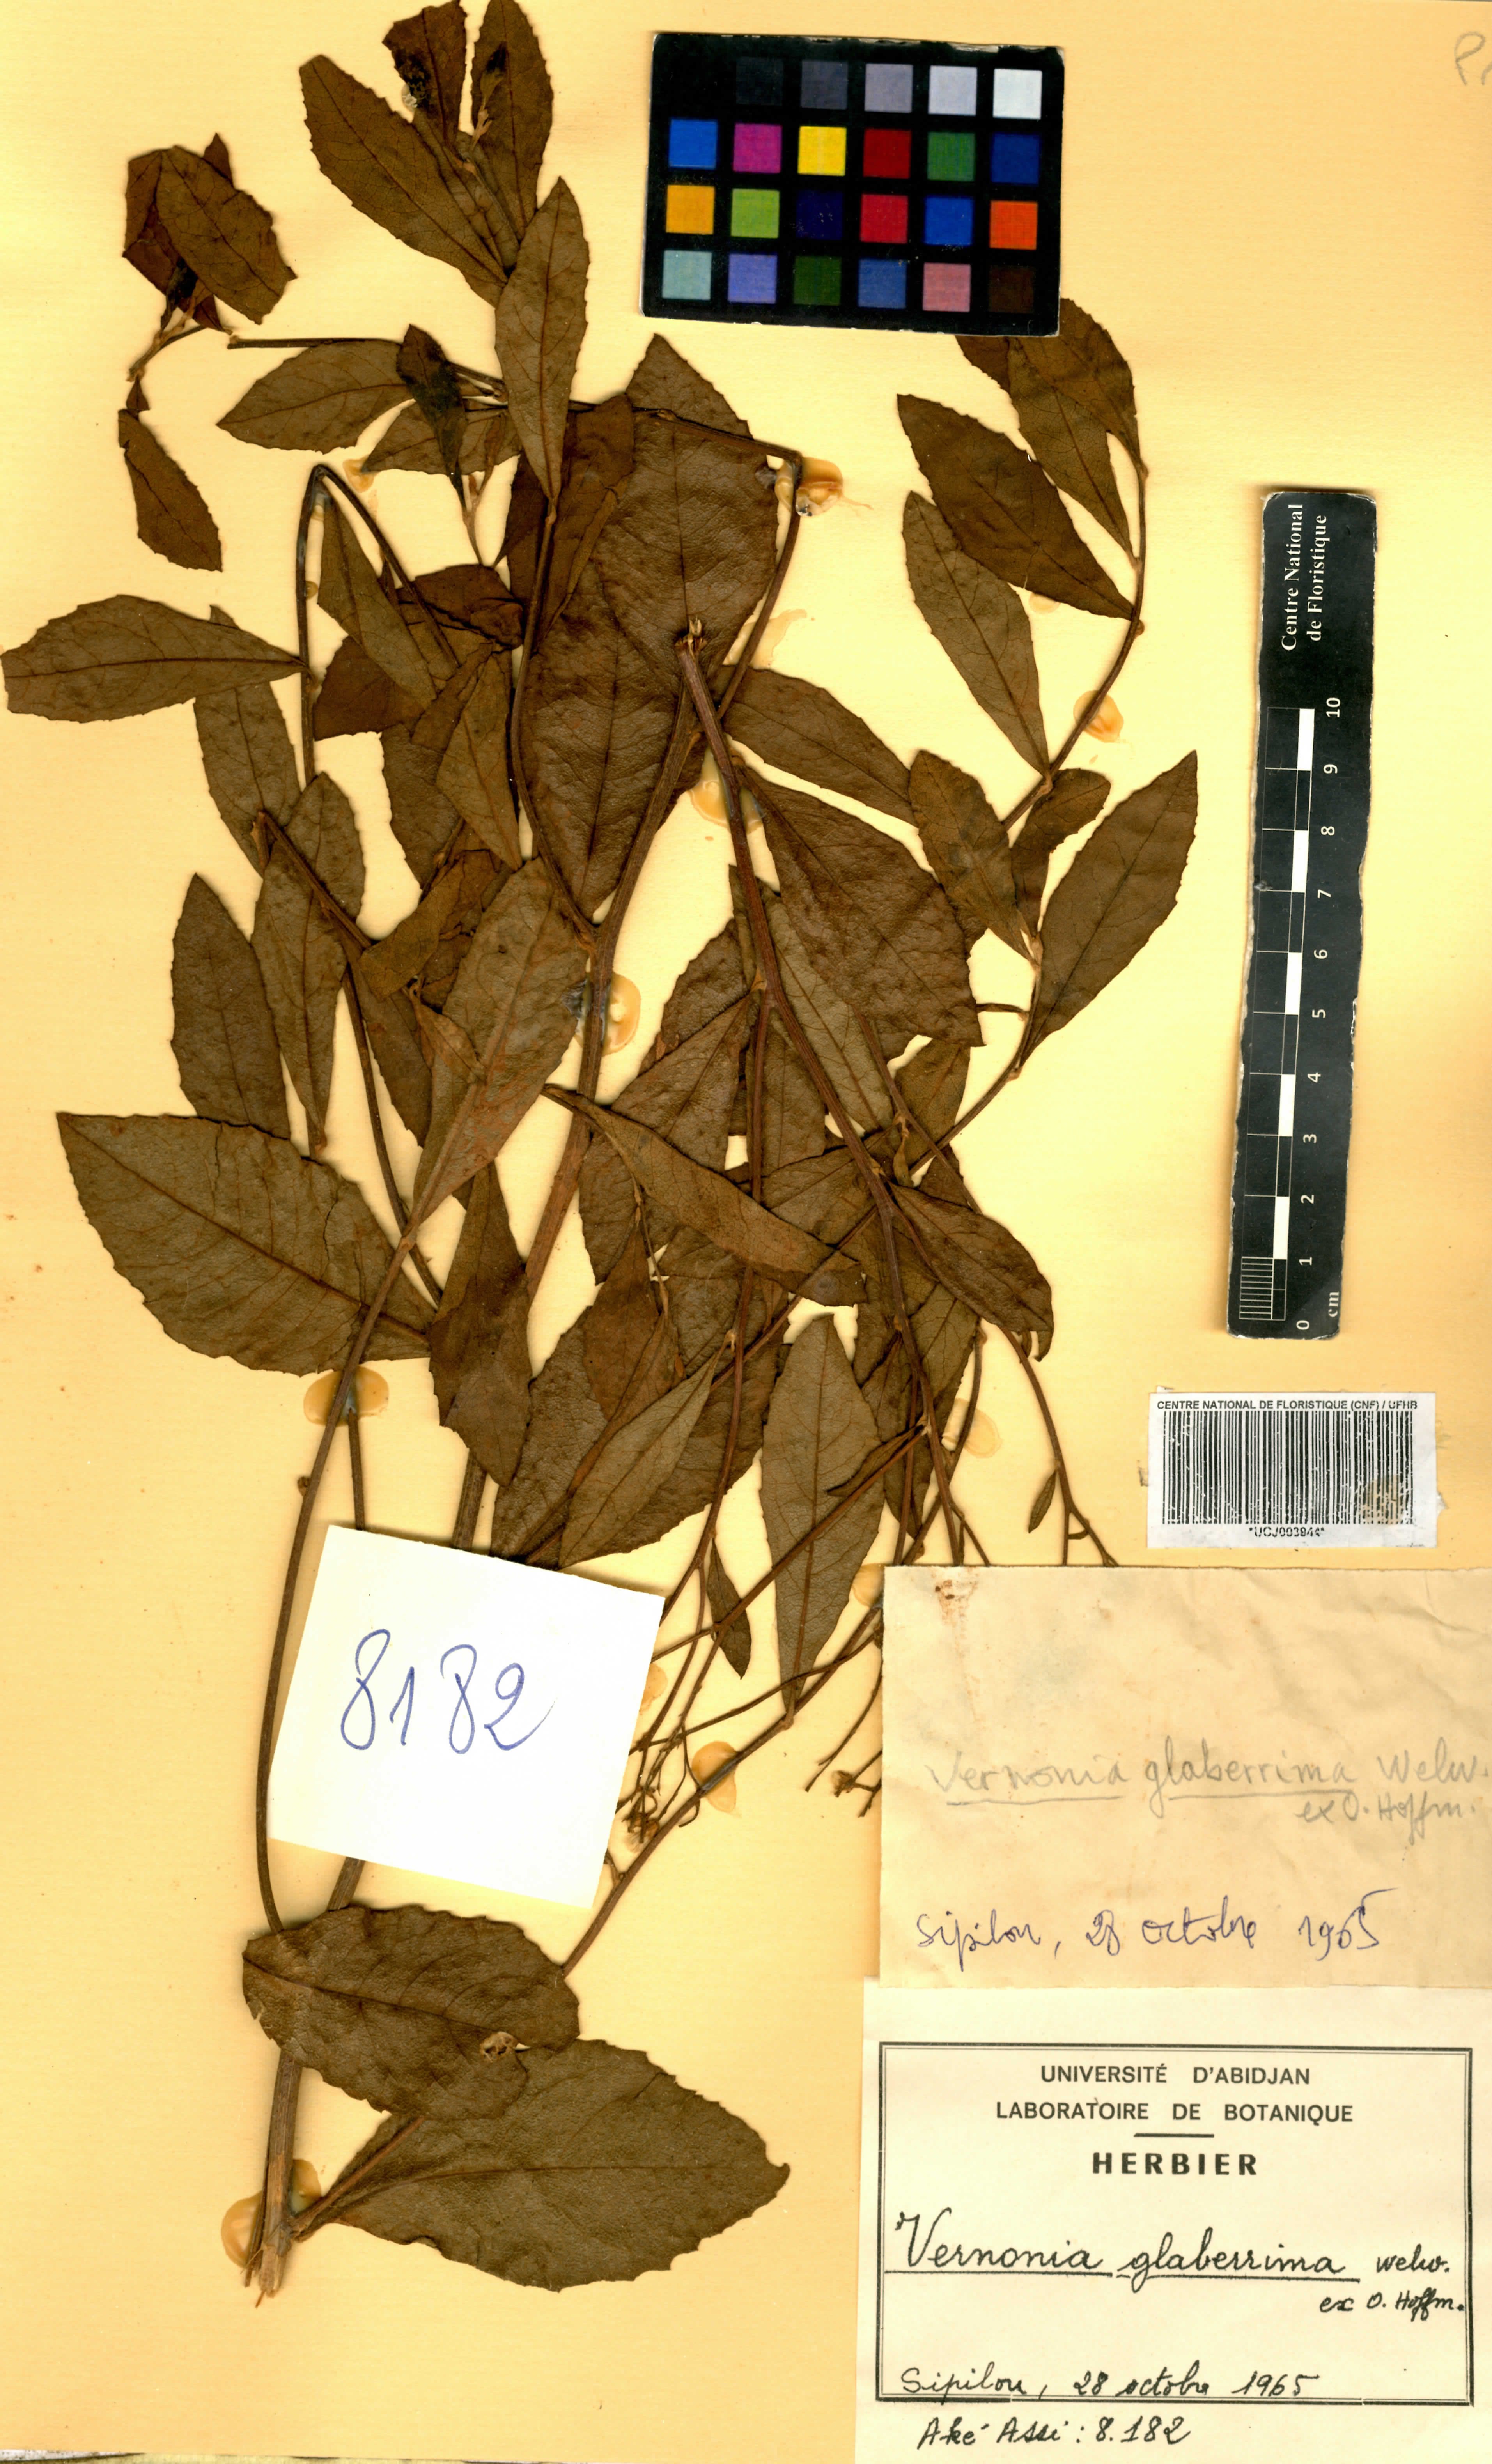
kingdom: Plantae
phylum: Tracheophyta
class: Magnoliopsida
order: Asterales
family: Asteraceae
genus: Gymnanthemum
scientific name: Gymnanthemum glaberrimum
